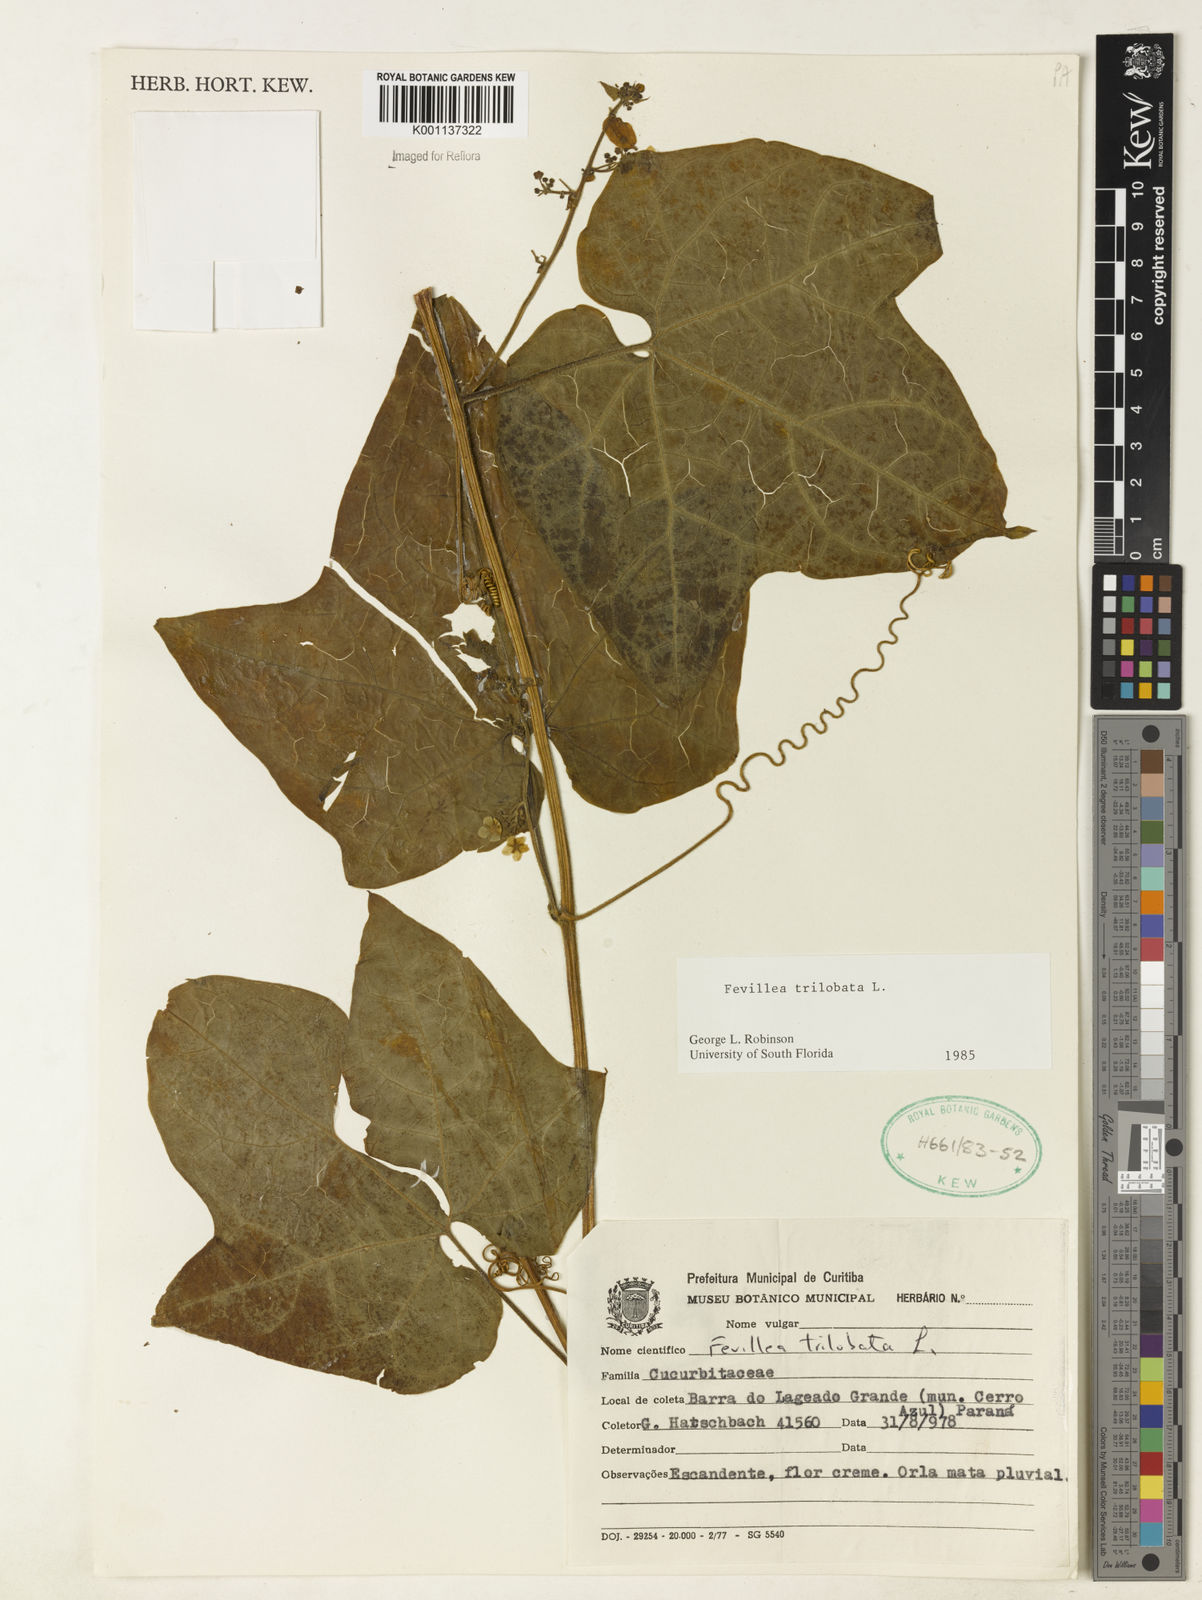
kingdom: Plantae
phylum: Tracheophyta
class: Magnoliopsida
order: Cucurbitales
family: Cucurbitaceae
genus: Fevillea
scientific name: Fevillea trilobata
